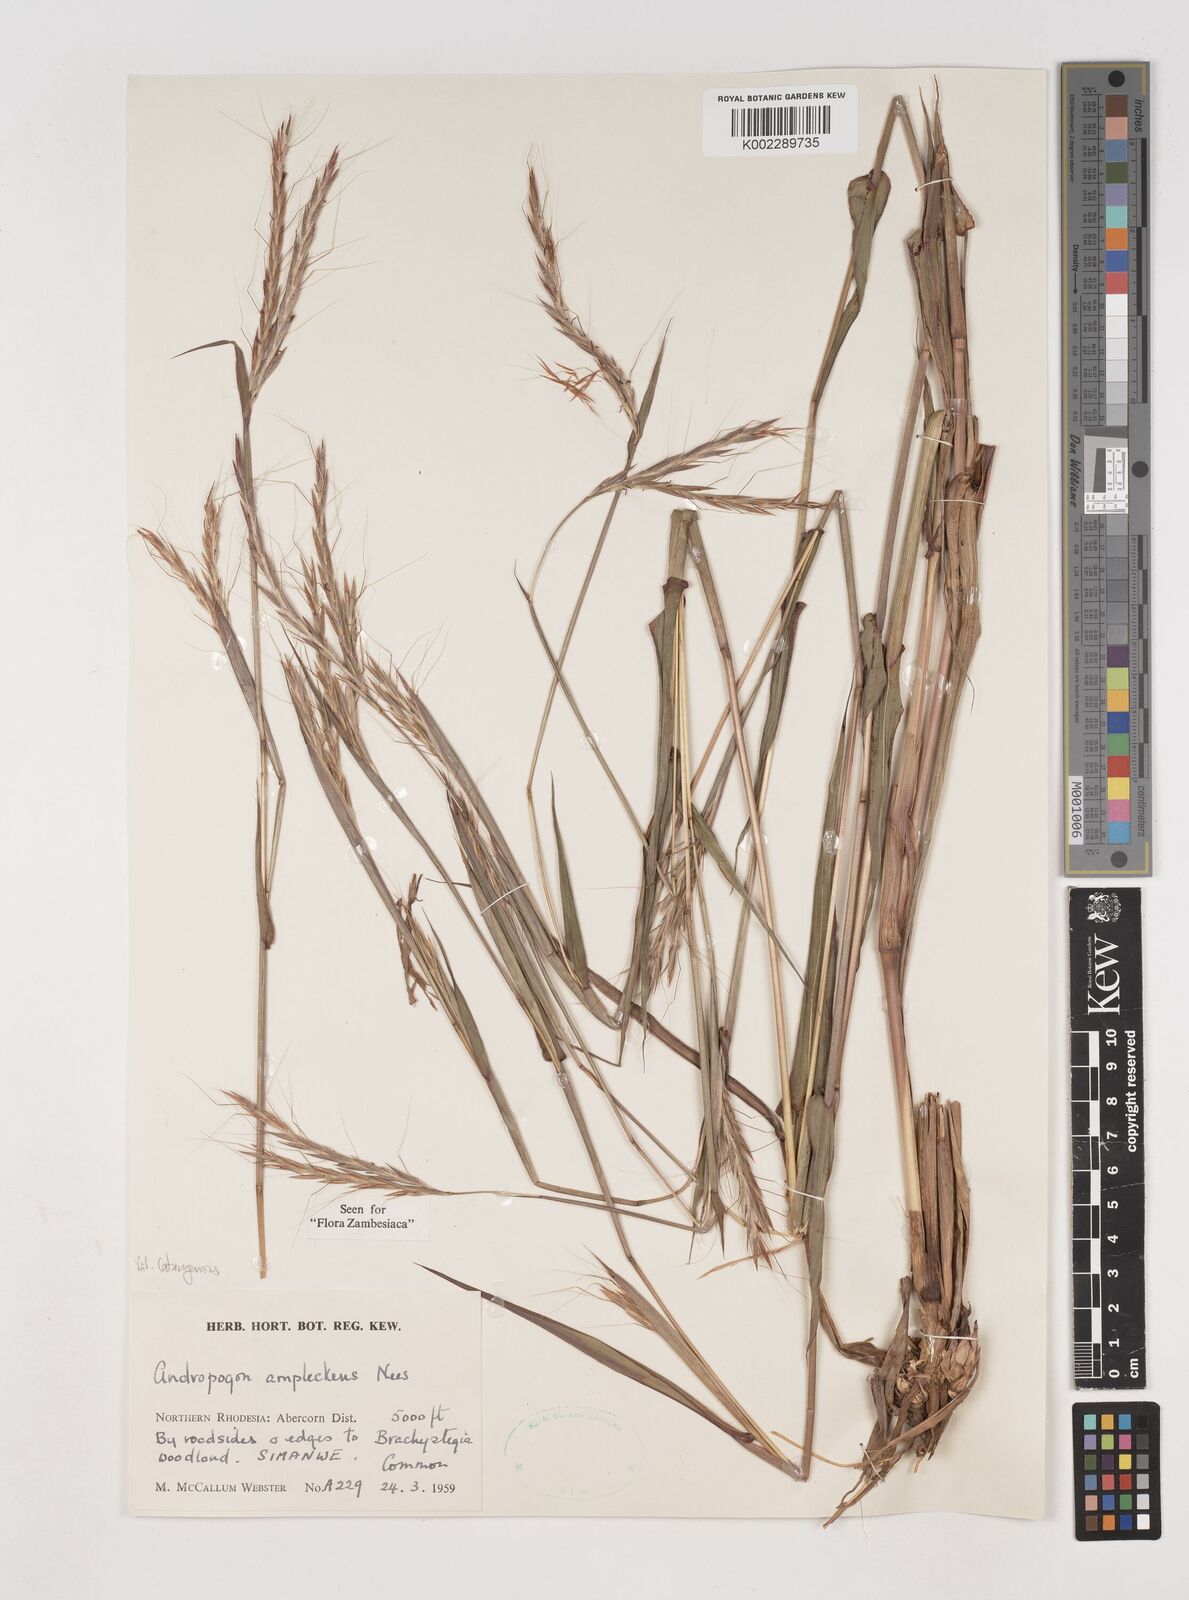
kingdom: Plantae
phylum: Tracheophyta
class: Liliopsida
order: Poales
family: Poaceae
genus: Diheteropogon
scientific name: Diheteropogon amplectens
